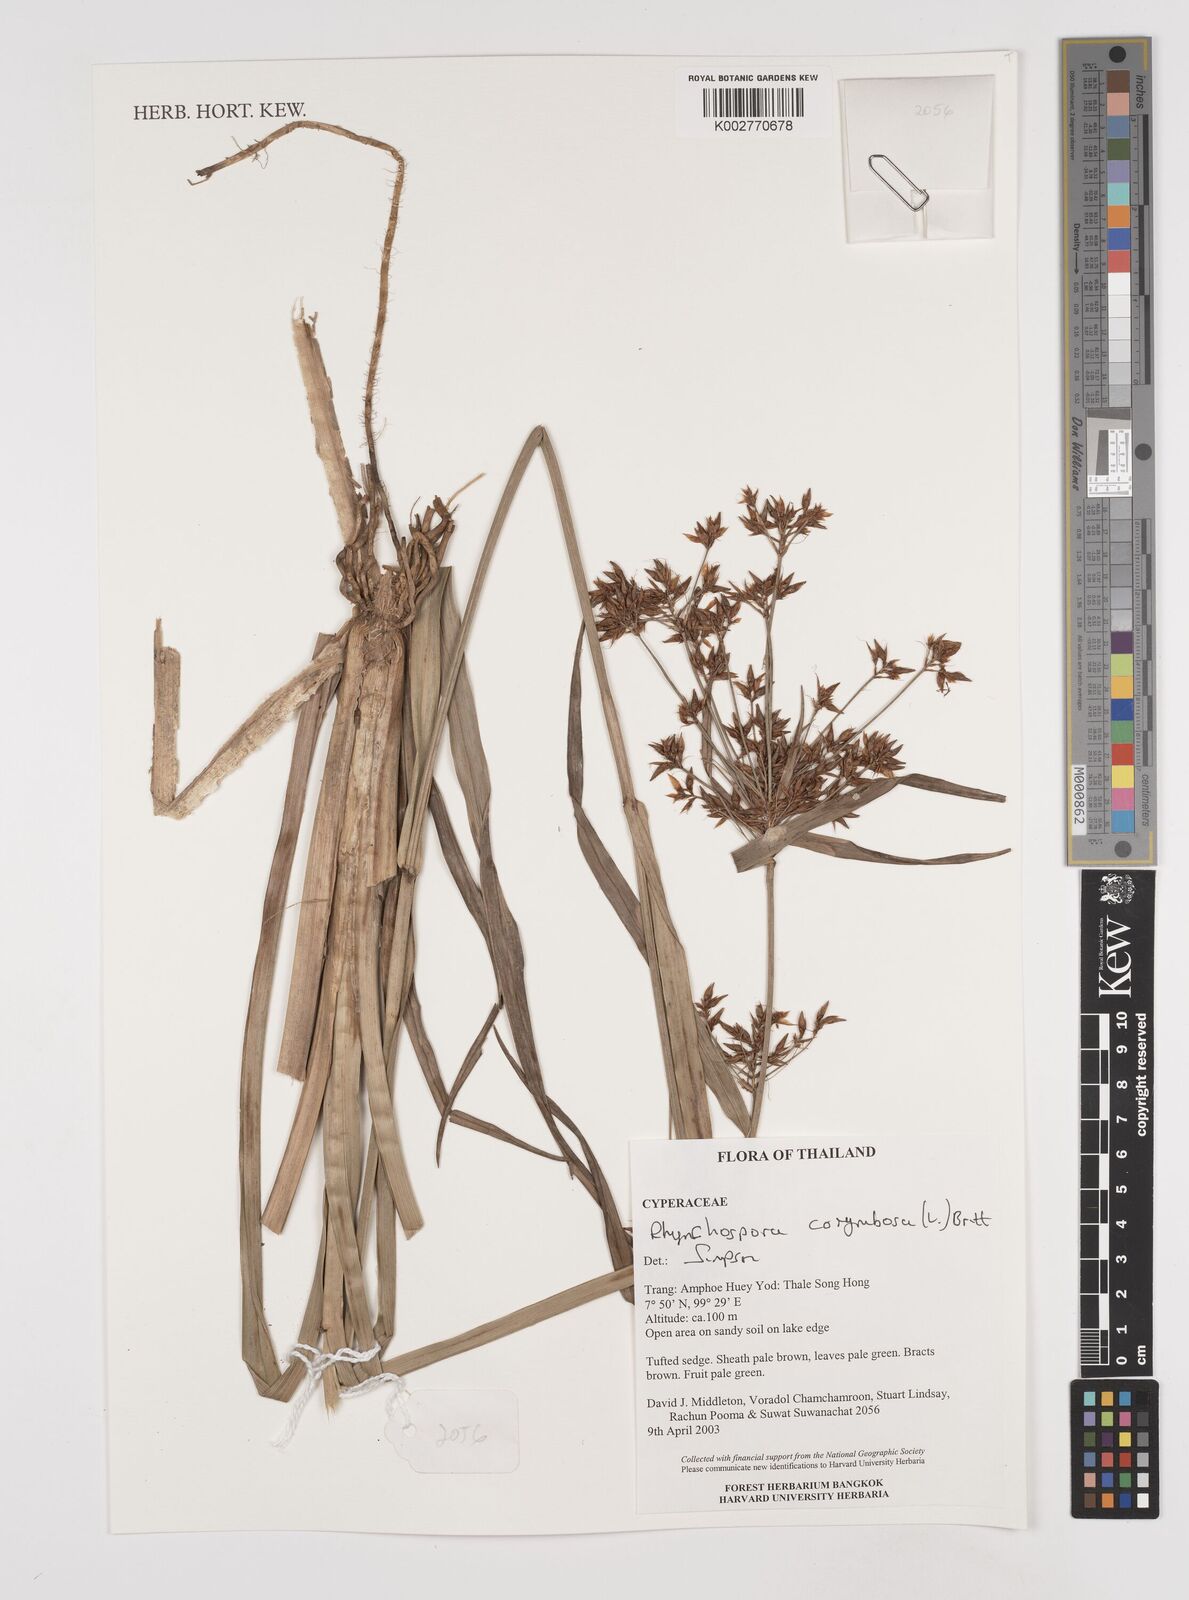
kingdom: Plantae
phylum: Tracheophyta
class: Liliopsida
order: Poales
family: Cyperaceae
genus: Rhynchospora
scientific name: Rhynchospora corymbosa
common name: Golden beak sedge
